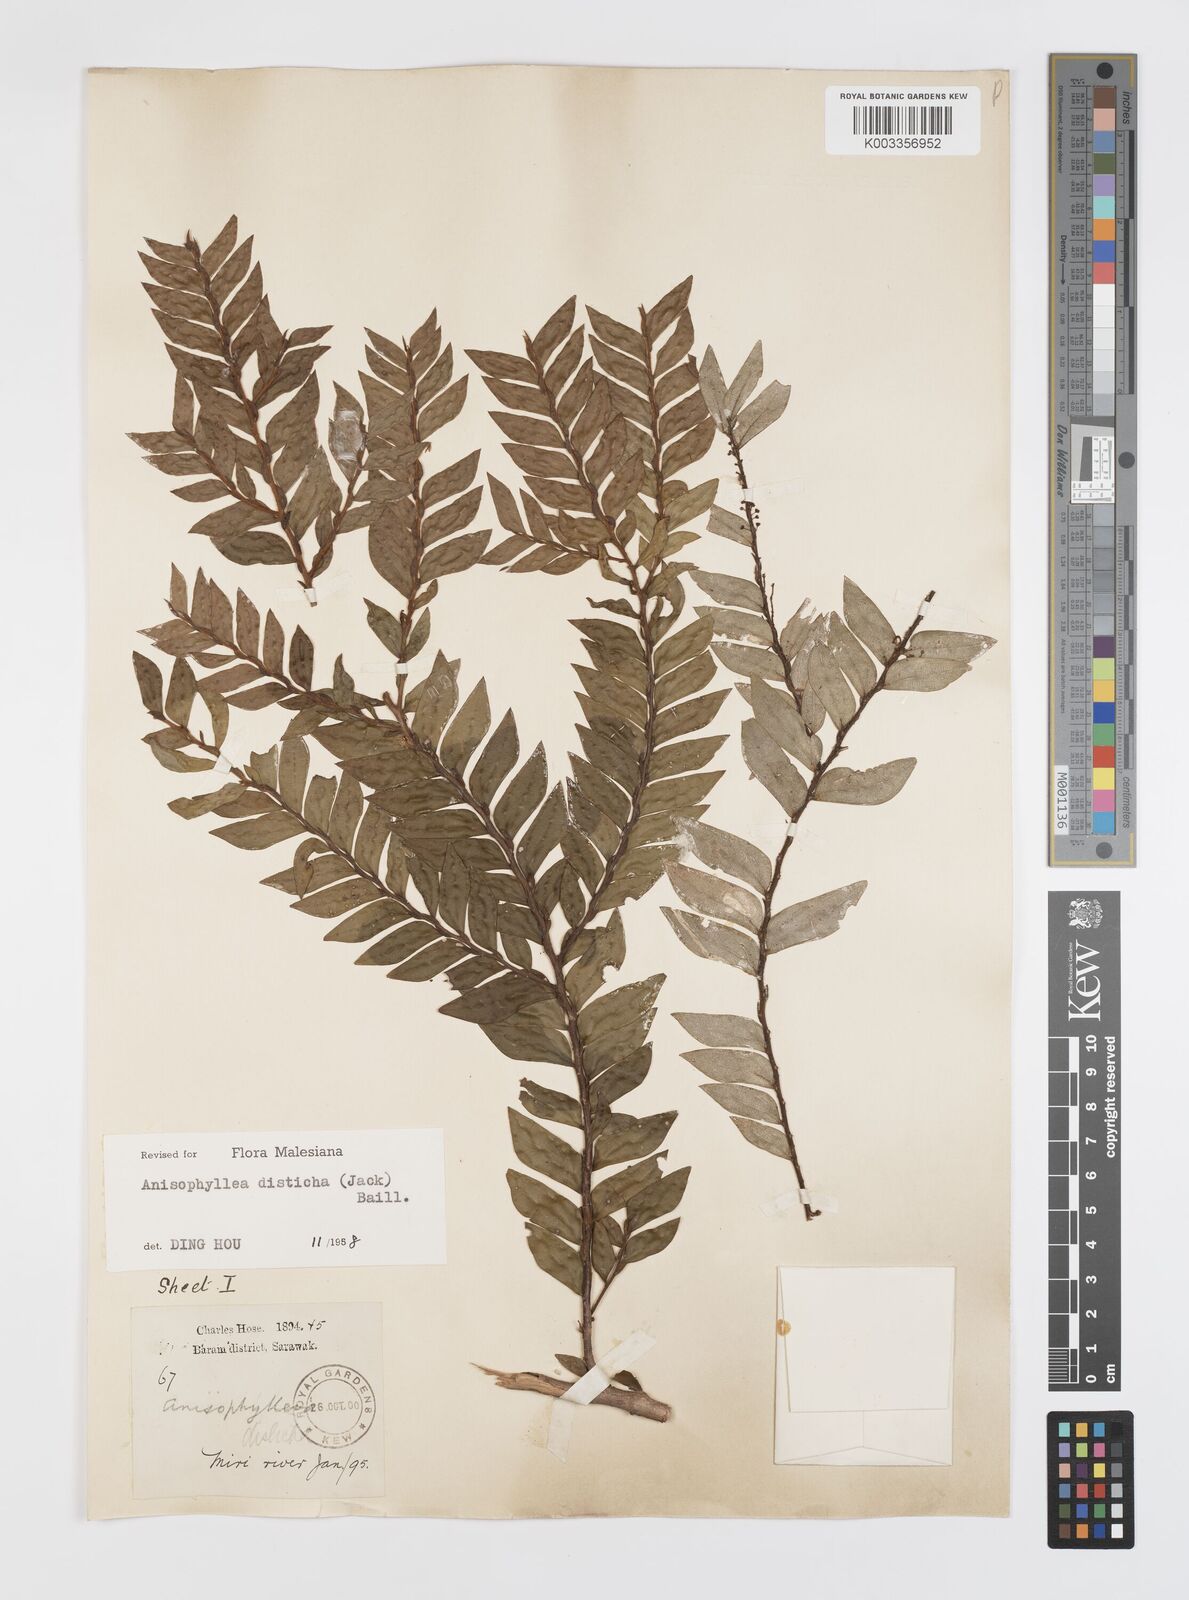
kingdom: Plantae
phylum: Tracheophyta
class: Magnoliopsida
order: Cucurbitales
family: Anisophylleaceae
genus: Anisophyllea
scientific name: Anisophyllea disticha
